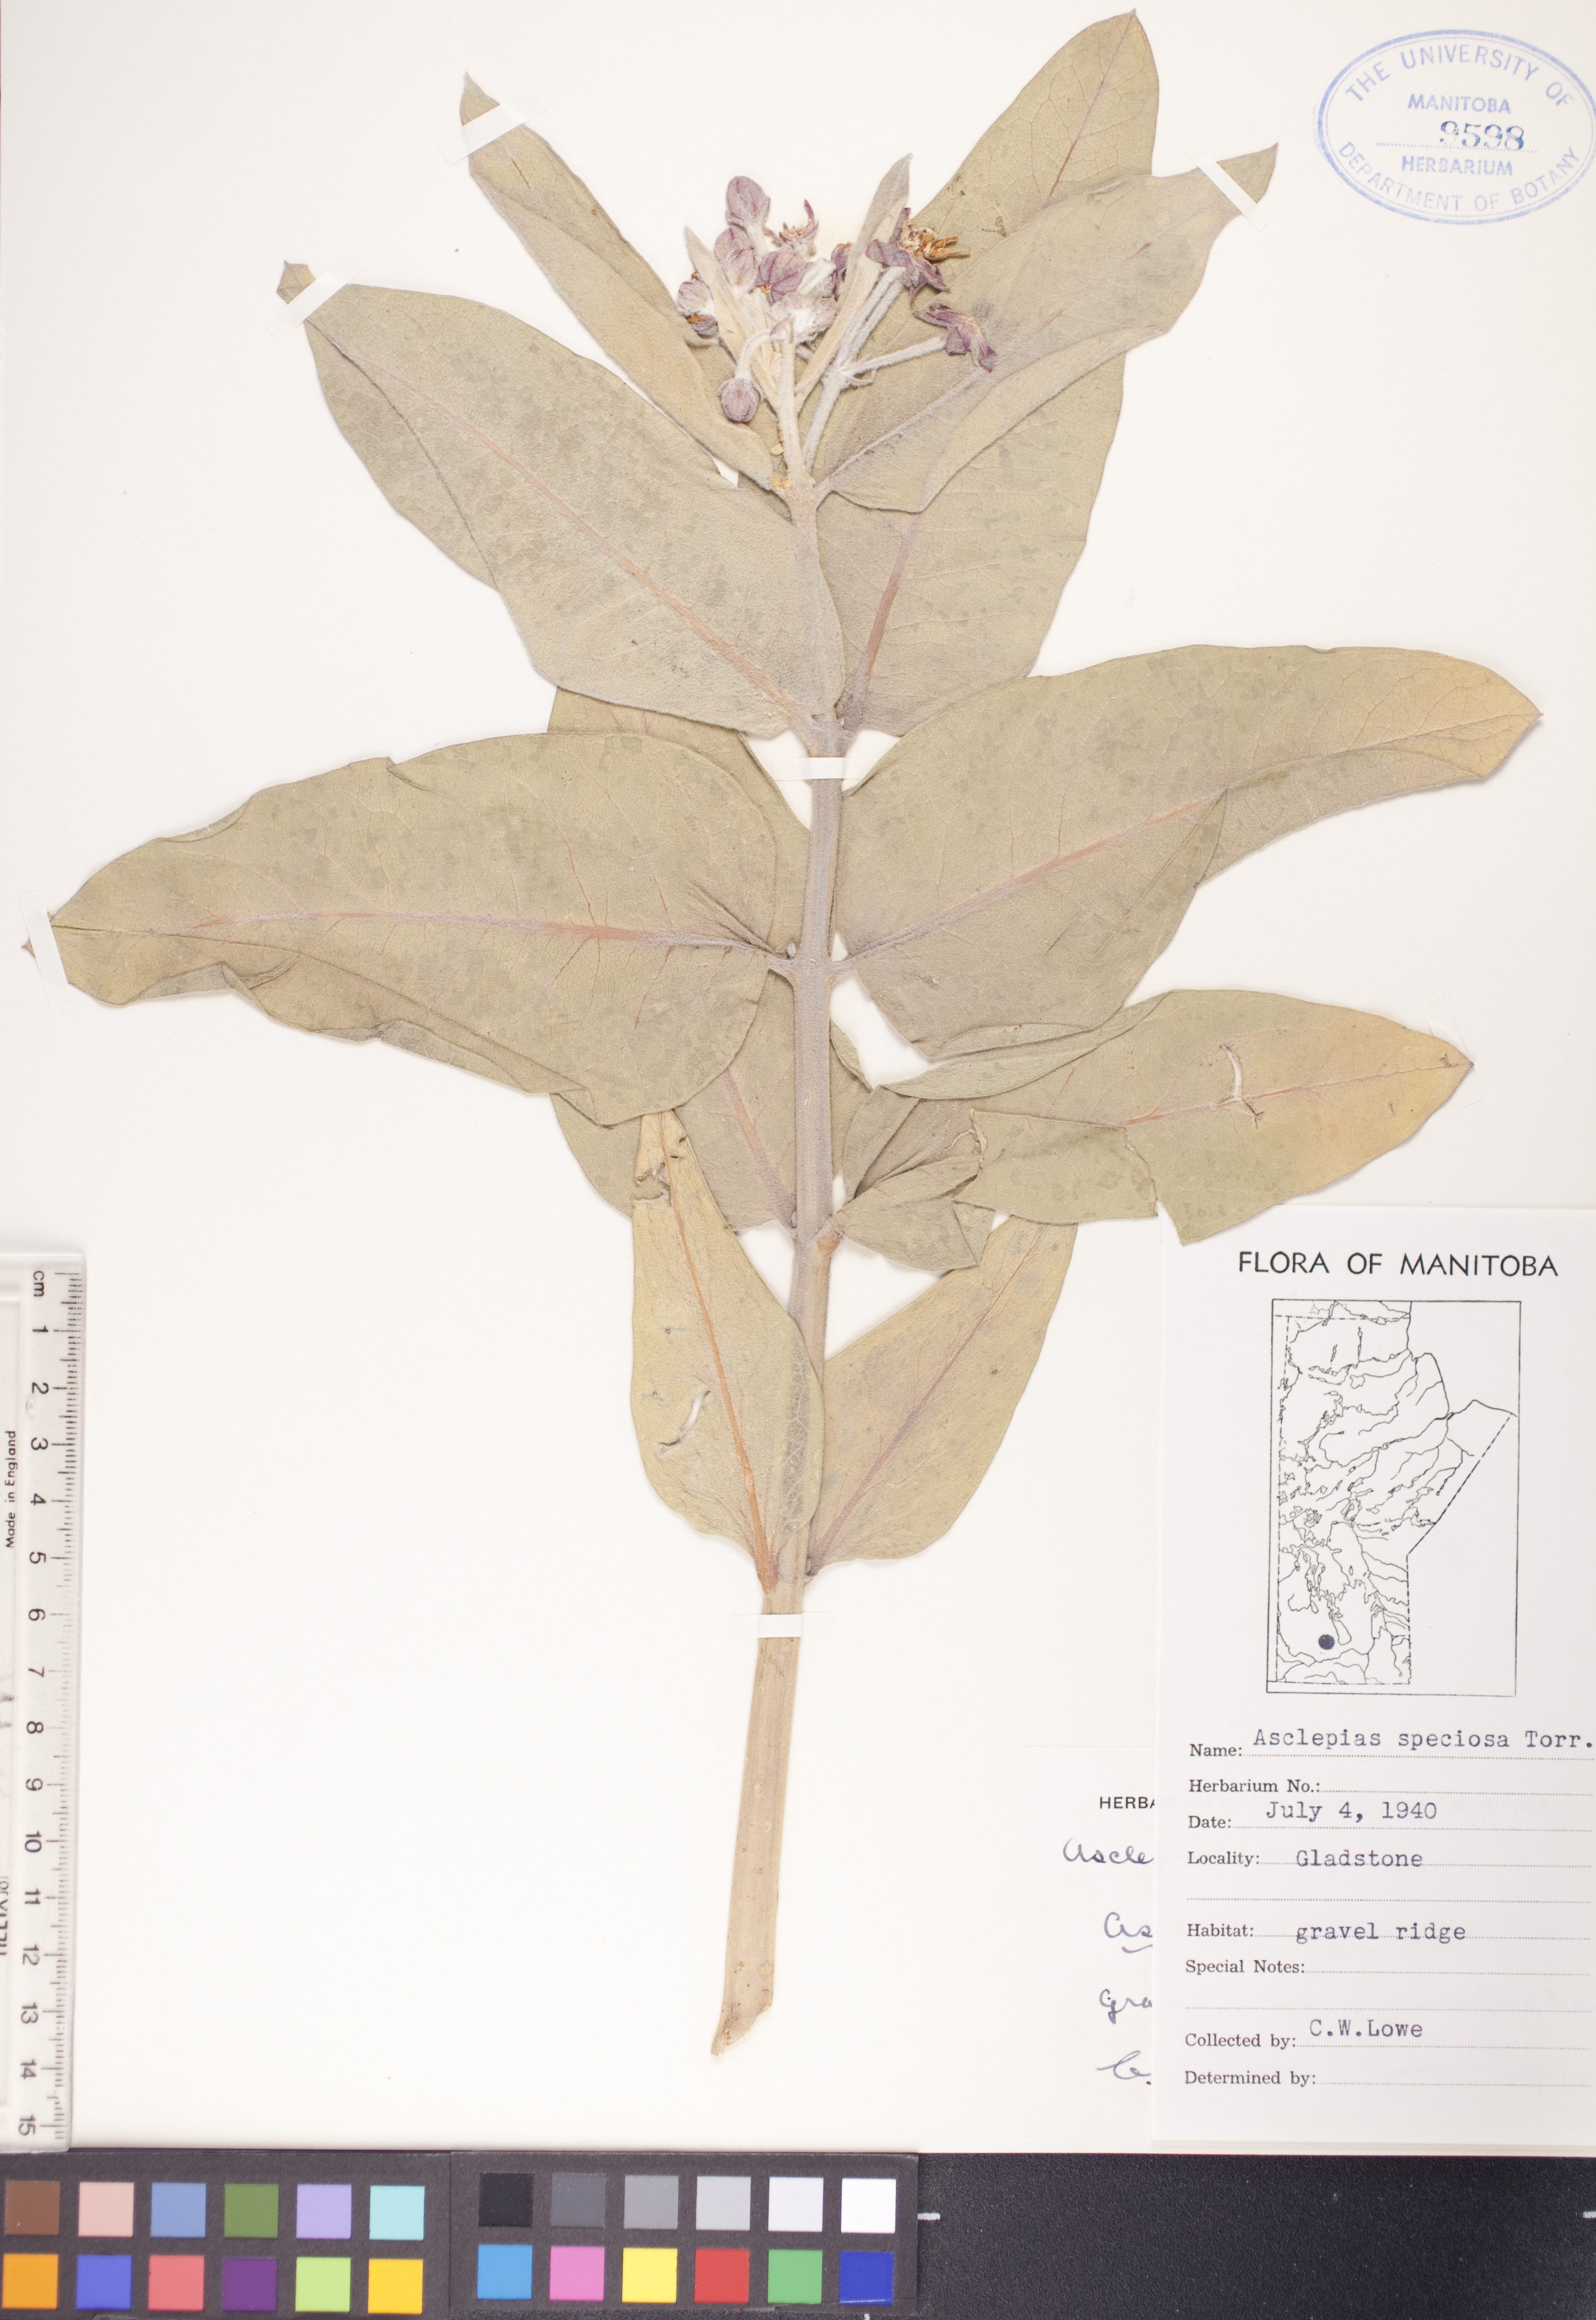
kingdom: Plantae
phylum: Tracheophyta
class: Magnoliopsida
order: Gentianales
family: Apocynaceae
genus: Asclepias
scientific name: Asclepias speciosa
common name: Showy milkweed
